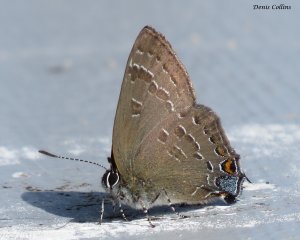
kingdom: Animalia
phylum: Arthropoda
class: Insecta
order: Lepidoptera
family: Lycaenidae
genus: Satyrium
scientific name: Satyrium calanus
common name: Banded Hairstreak
